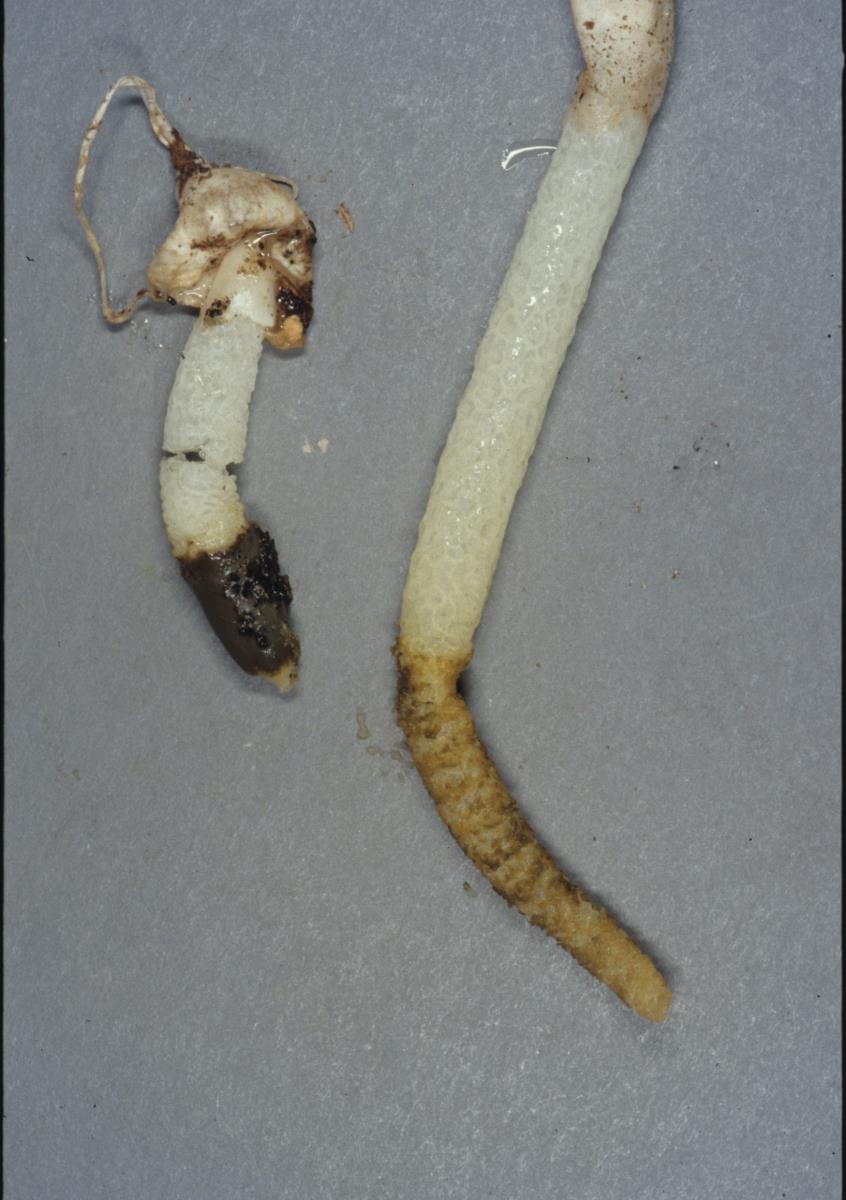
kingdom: Fungi
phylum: Basidiomycota
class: Agaricomycetes
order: Phallales
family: Phallaceae
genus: Mutinus
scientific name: Mutinus
